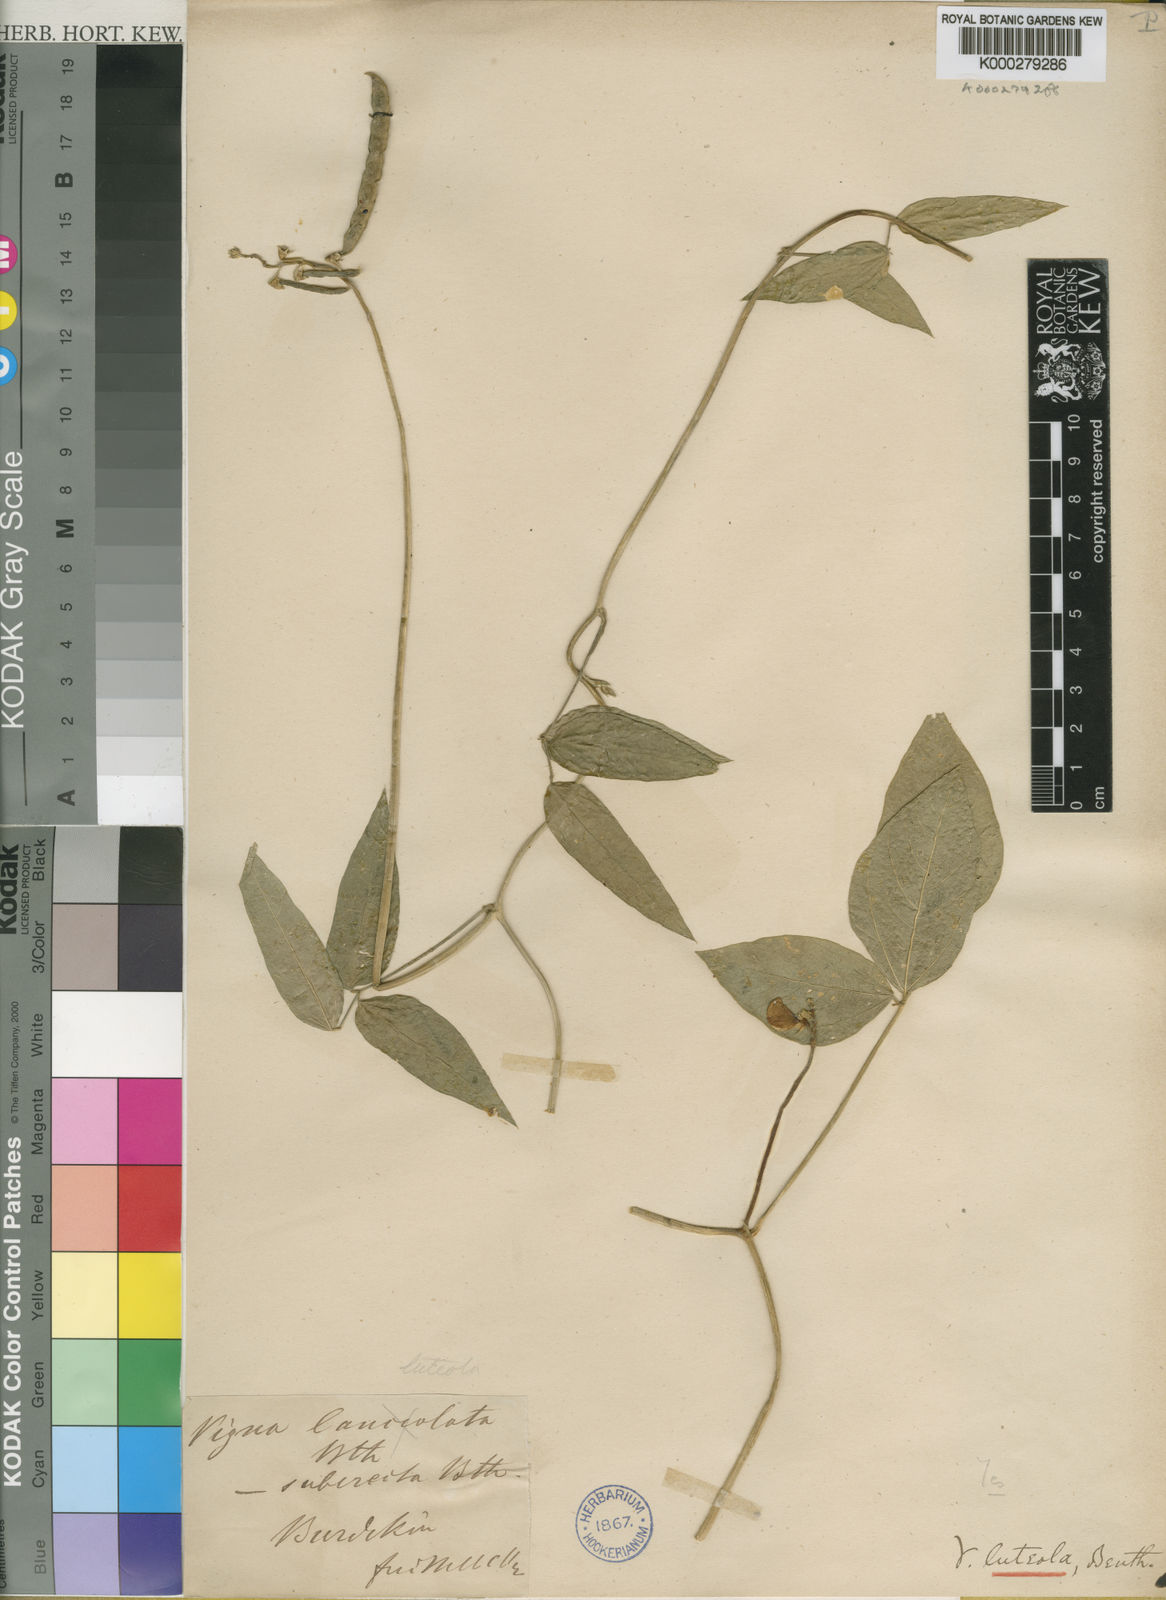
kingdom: Plantae
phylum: Tracheophyta
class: Magnoliopsida
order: Fabales
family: Fabaceae
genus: Vigna
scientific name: Vigna luteola
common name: Hairypod cowpea
